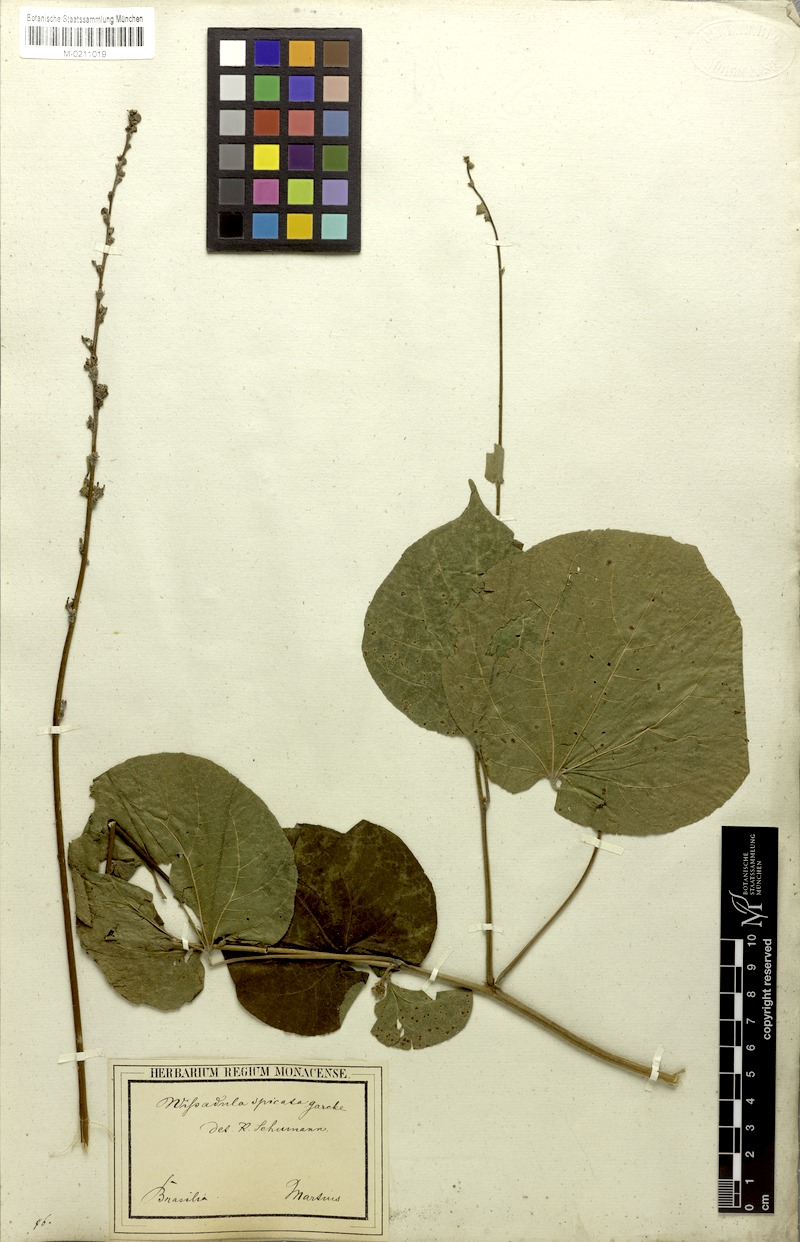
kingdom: Plantae
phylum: Tracheophyta
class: Magnoliopsida
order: Malvales
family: Malvaceae
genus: Allobriquetia
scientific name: Allobriquetia spicata
